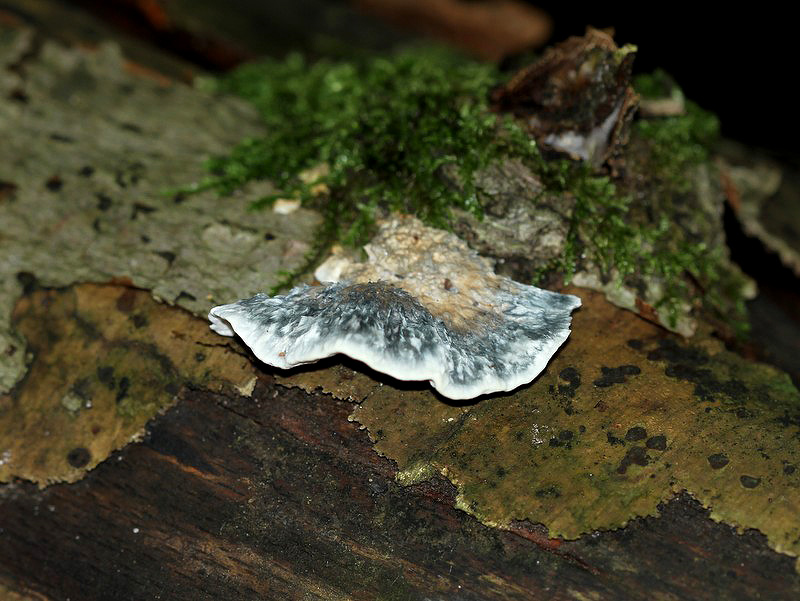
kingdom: Fungi
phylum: Basidiomycota
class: Agaricomycetes
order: Polyporales
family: Polyporaceae
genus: Cyanosporus
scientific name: Cyanosporus alni
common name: blegblå kødporesvamp
